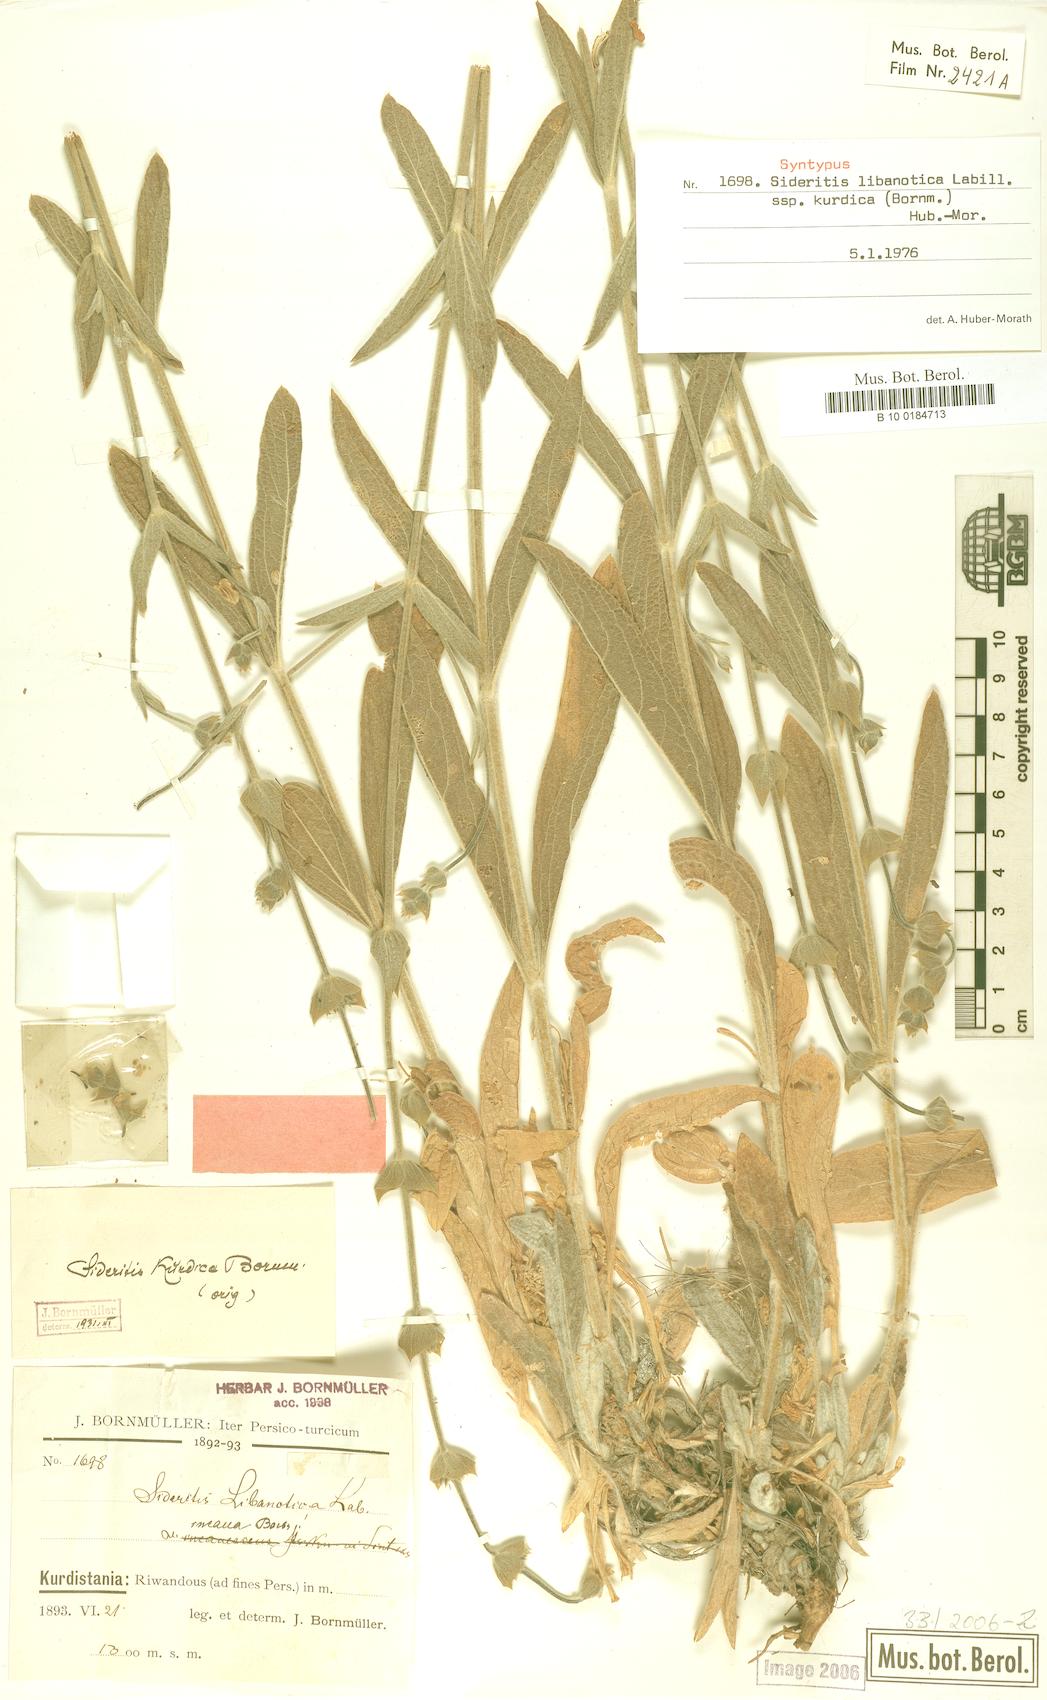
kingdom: Plantae
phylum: Tracheophyta
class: Magnoliopsida
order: Lamiales
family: Lamiaceae
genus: Sideritis
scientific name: Sideritis libanotica
